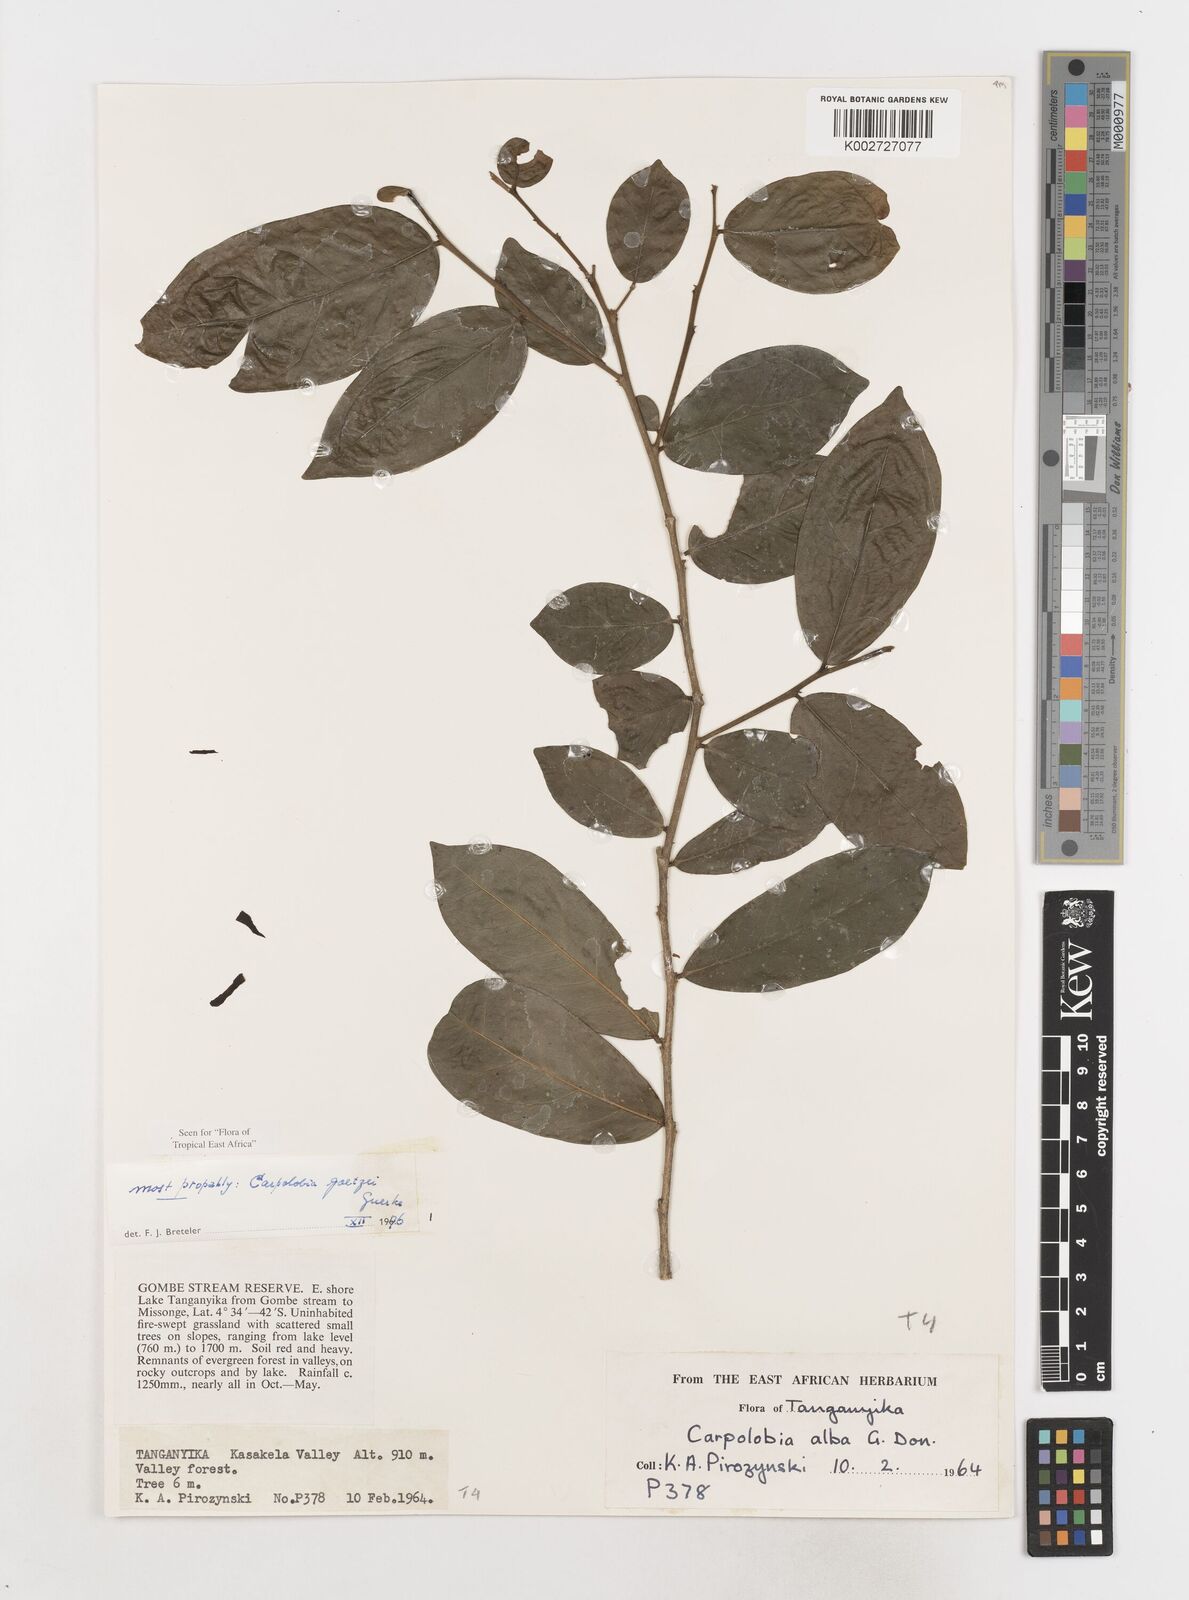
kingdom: Plantae
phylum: Tracheophyta
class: Magnoliopsida
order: Fabales
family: Polygalaceae
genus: Carpolobia
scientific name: Carpolobia goetzei
